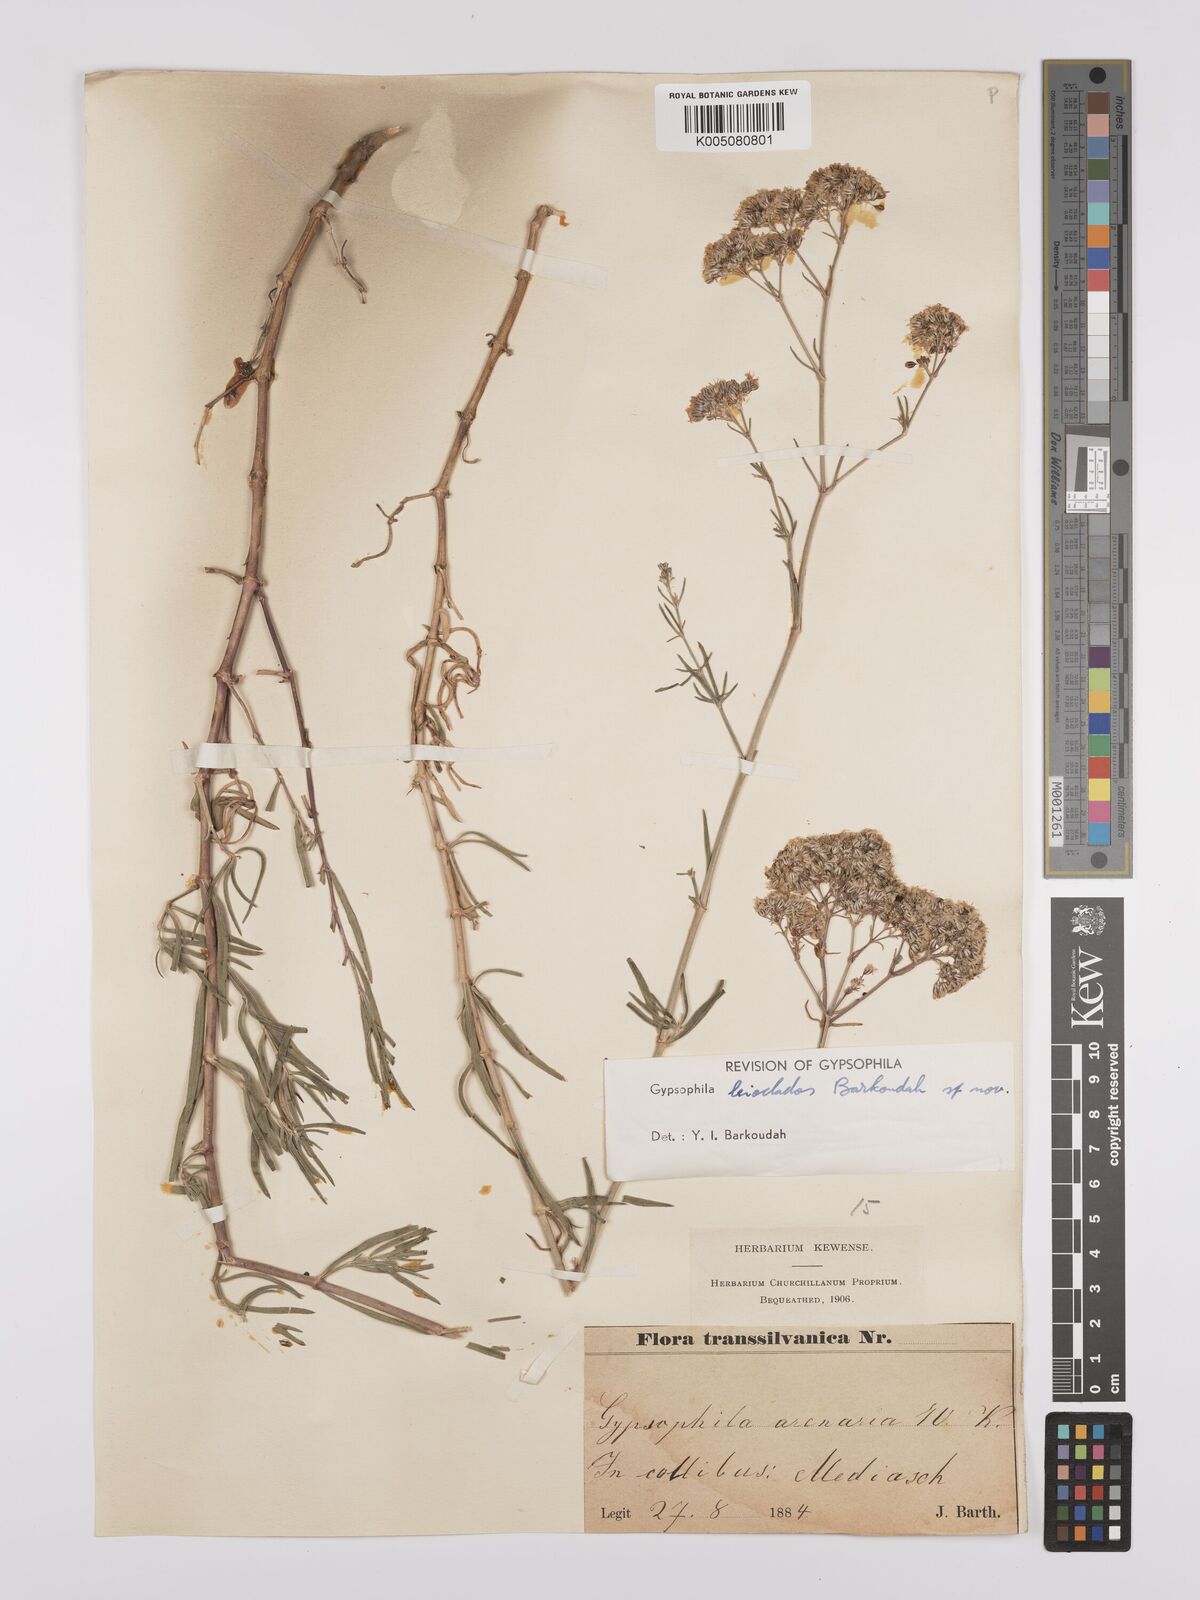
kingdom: Plantae
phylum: Tracheophyta
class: Magnoliopsida
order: Caryophyllales
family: Caryophyllaceae
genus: Gypsophila
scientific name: Gypsophila
